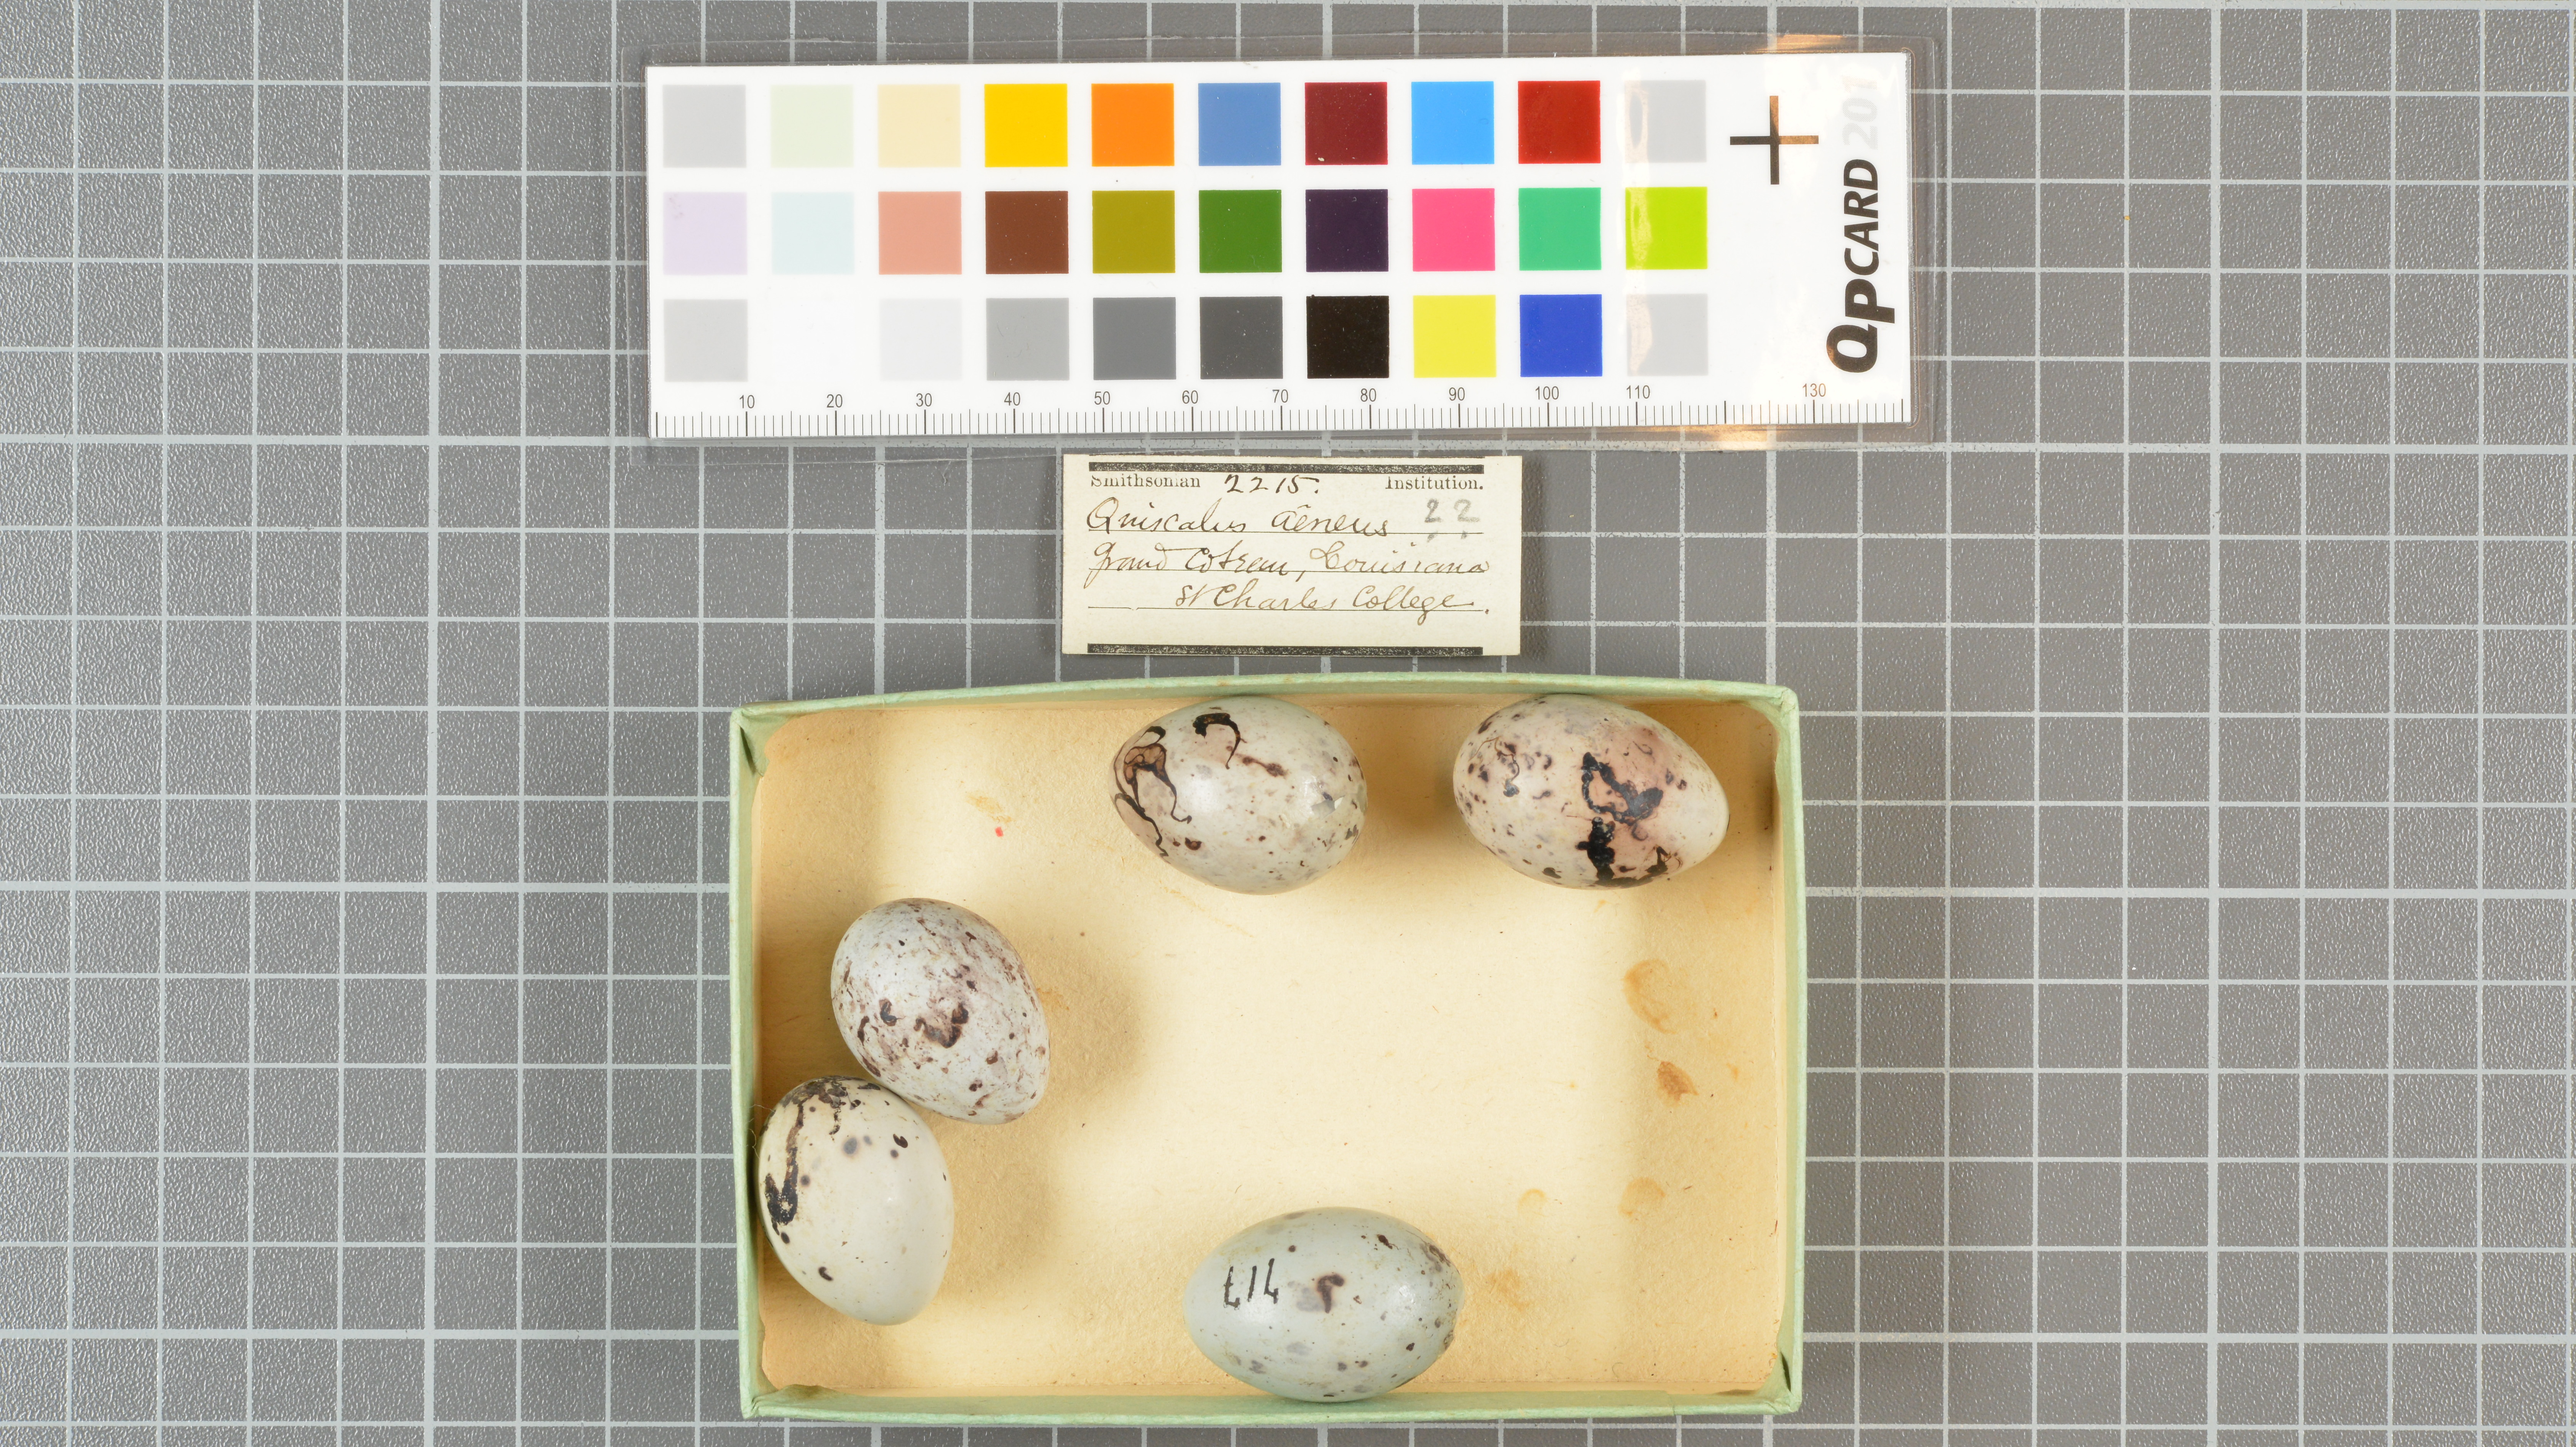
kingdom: Animalia
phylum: Chordata
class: Aves
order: Passeriformes
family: Icteridae
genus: Quiscalus
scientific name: Quiscalus quiscula
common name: Common grackle
